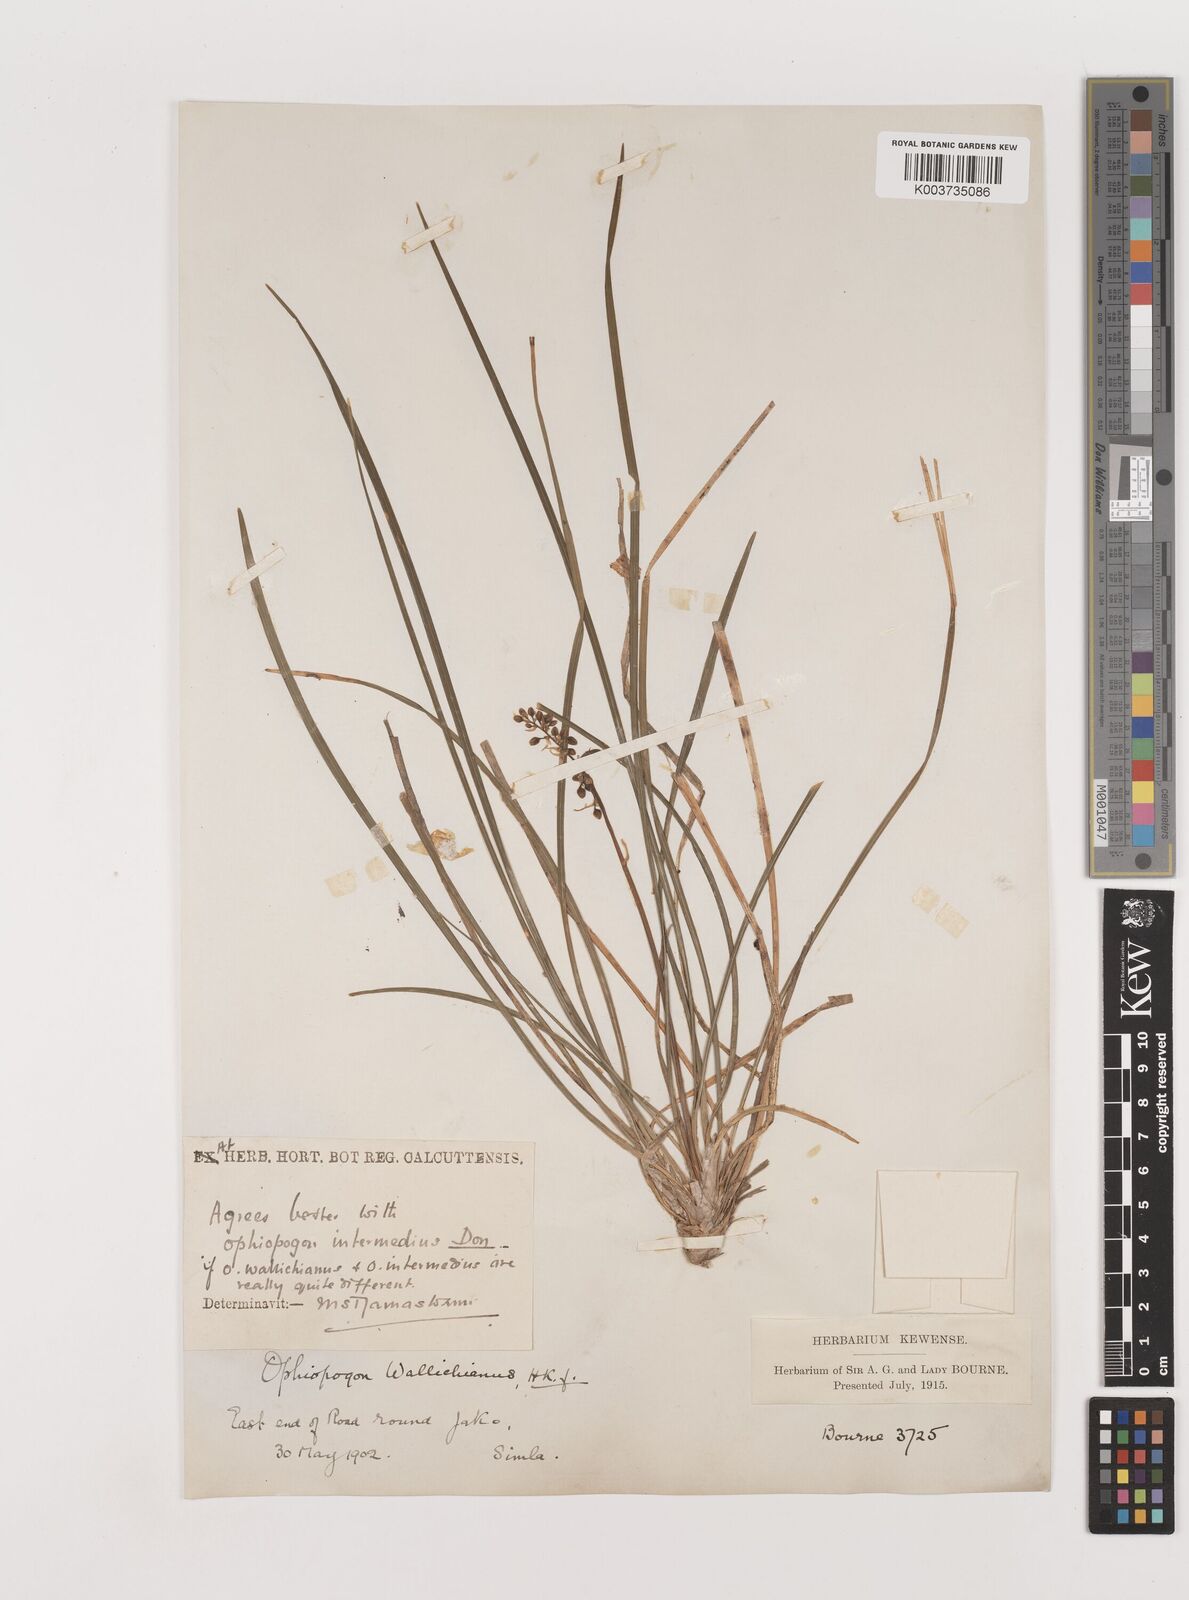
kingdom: Plantae
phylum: Tracheophyta
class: Liliopsida
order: Asparagales
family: Asparagaceae
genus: Ophiopogon
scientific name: Ophiopogon
